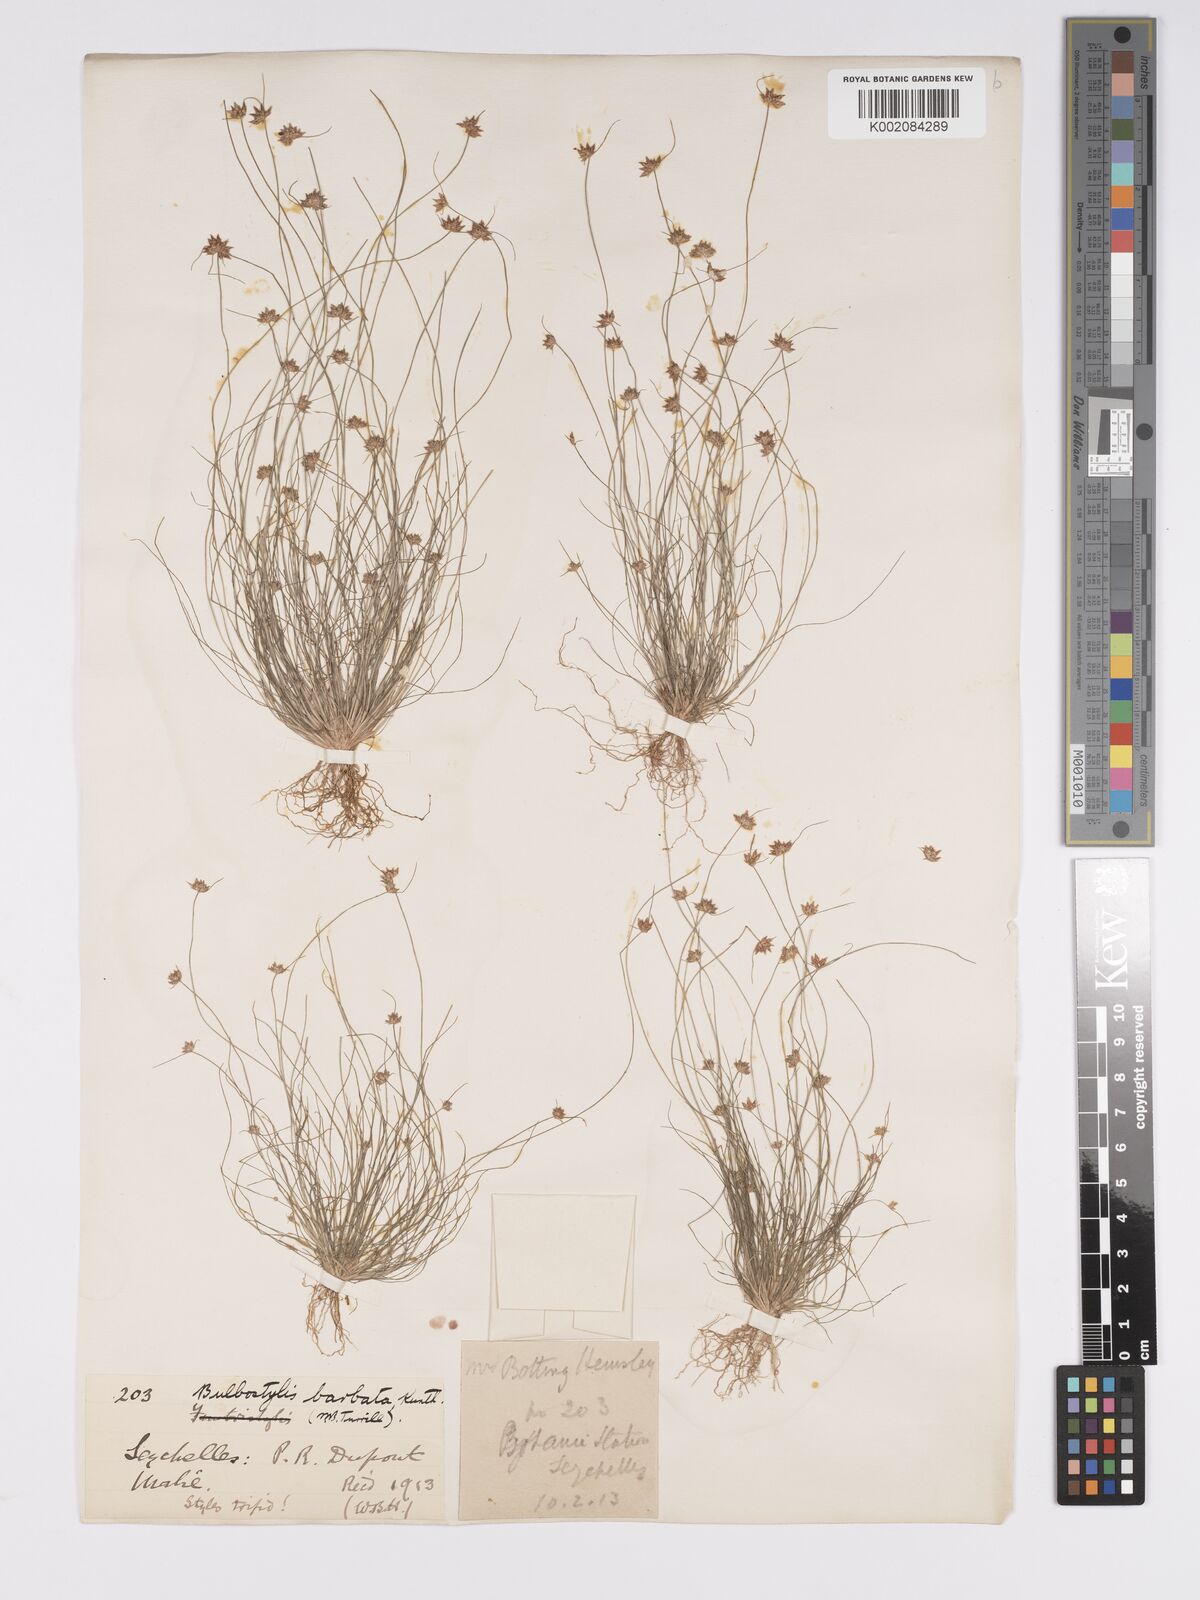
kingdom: Plantae
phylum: Tracheophyta
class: Liliopsida
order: Poales
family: Cyperaceae
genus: Bulbostylis
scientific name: Bulbostylis barbata
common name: Watergrass
